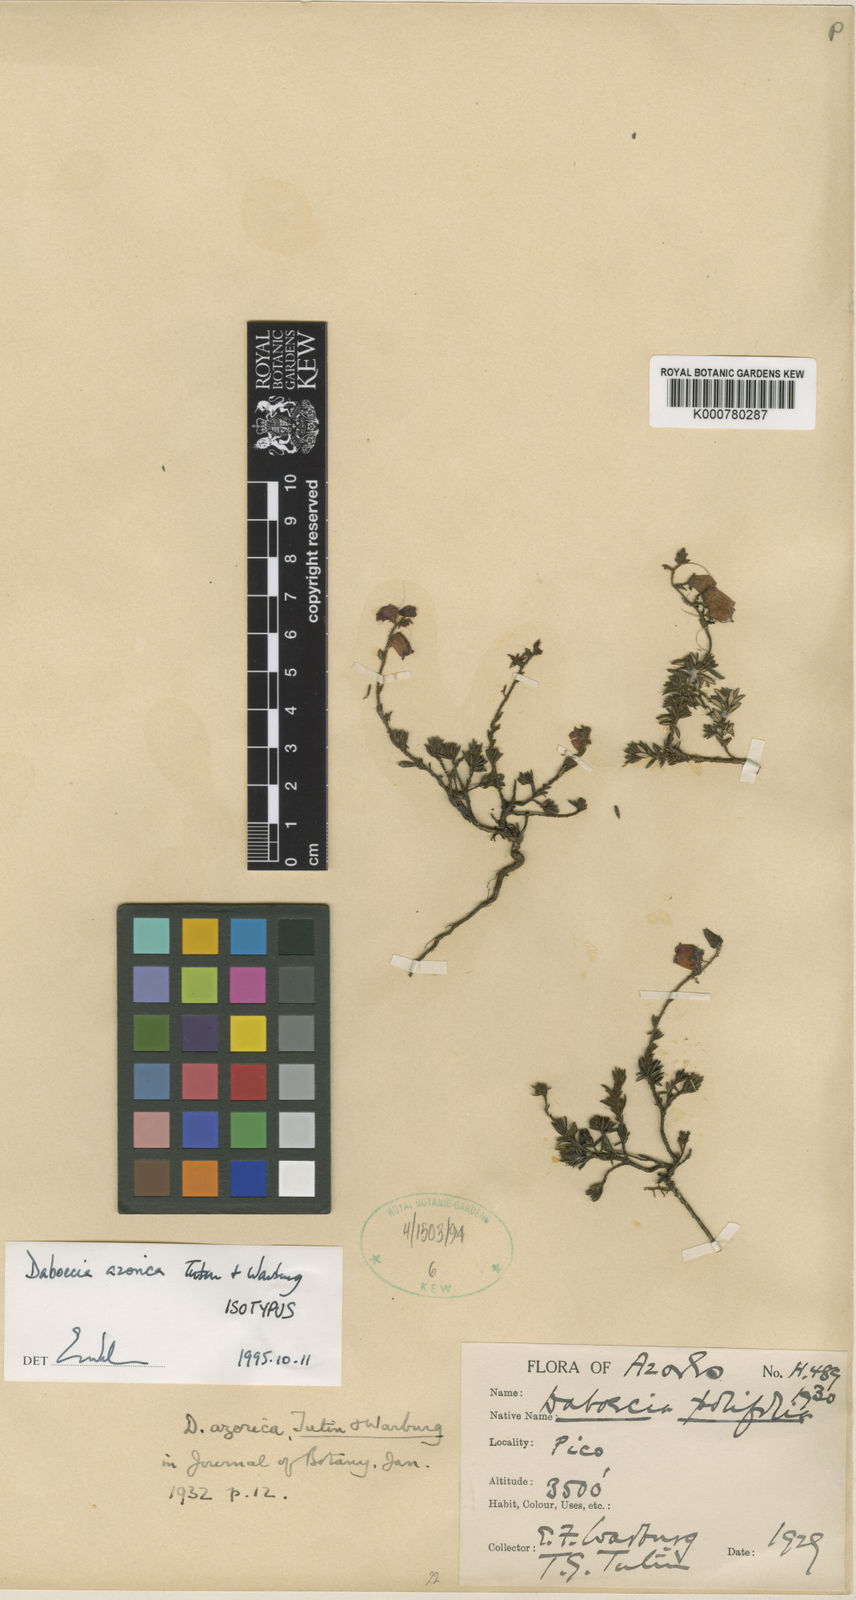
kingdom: Plantae
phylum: Tracheophyta
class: Magnoliopsida
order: Ericales
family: Ericaceae
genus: Daboecia
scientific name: Daboecia cantabrica
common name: St. dabeoc's-heath
